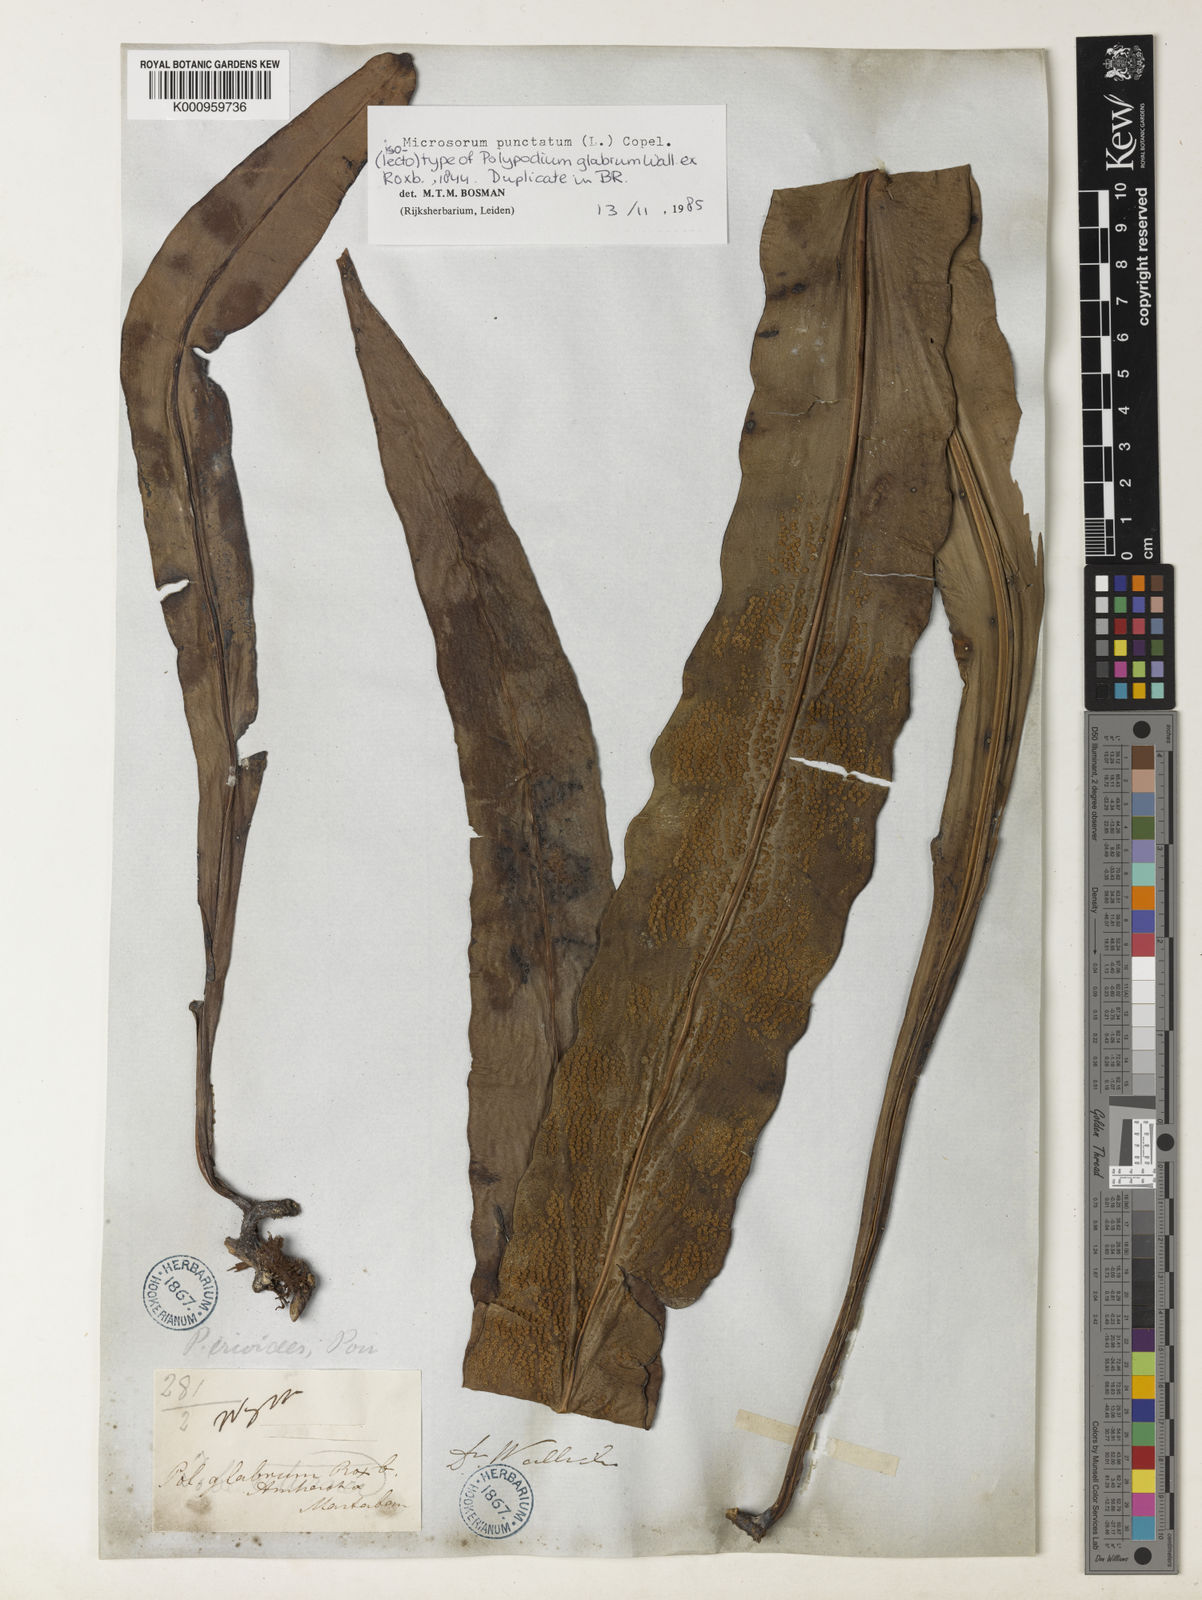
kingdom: Plantae
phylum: Tracheophyta
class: Polypodiopsida
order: Polypodiales
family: Polypodiaceae
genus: Microsorum
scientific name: Microsorum punctatum
